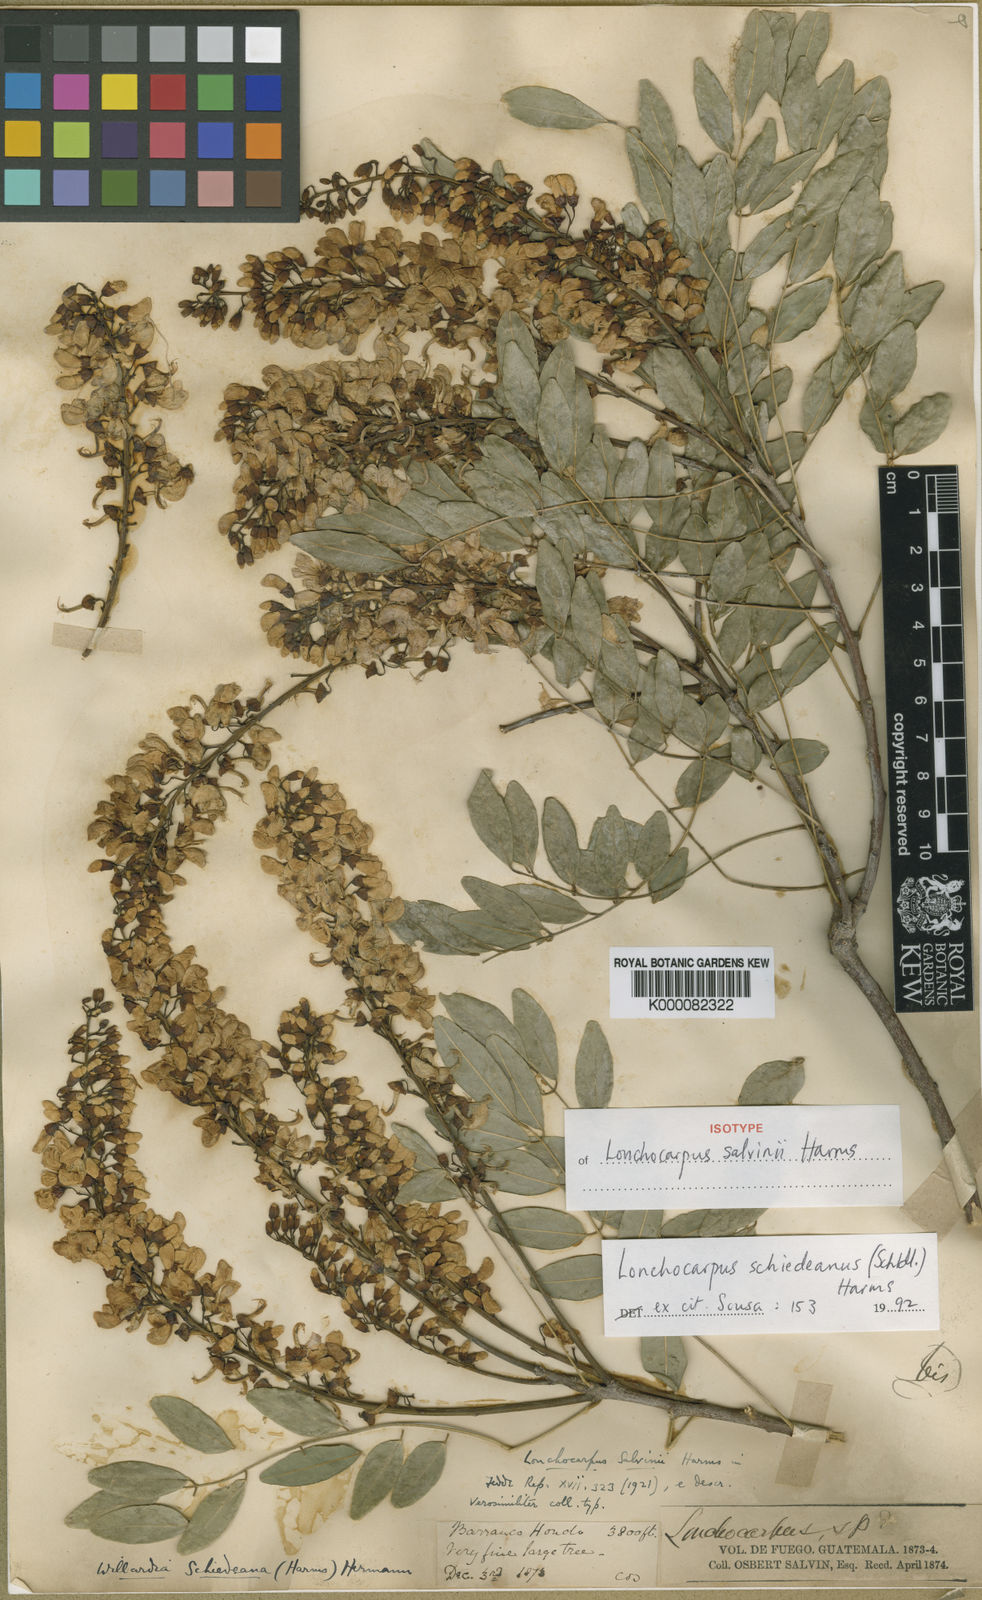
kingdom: Plantae
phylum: Tracheophyta
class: Magnoliopsida
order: Fabales
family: Fabaceae
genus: Lonchocarpus
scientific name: Lonchocarpus schiedeanus
